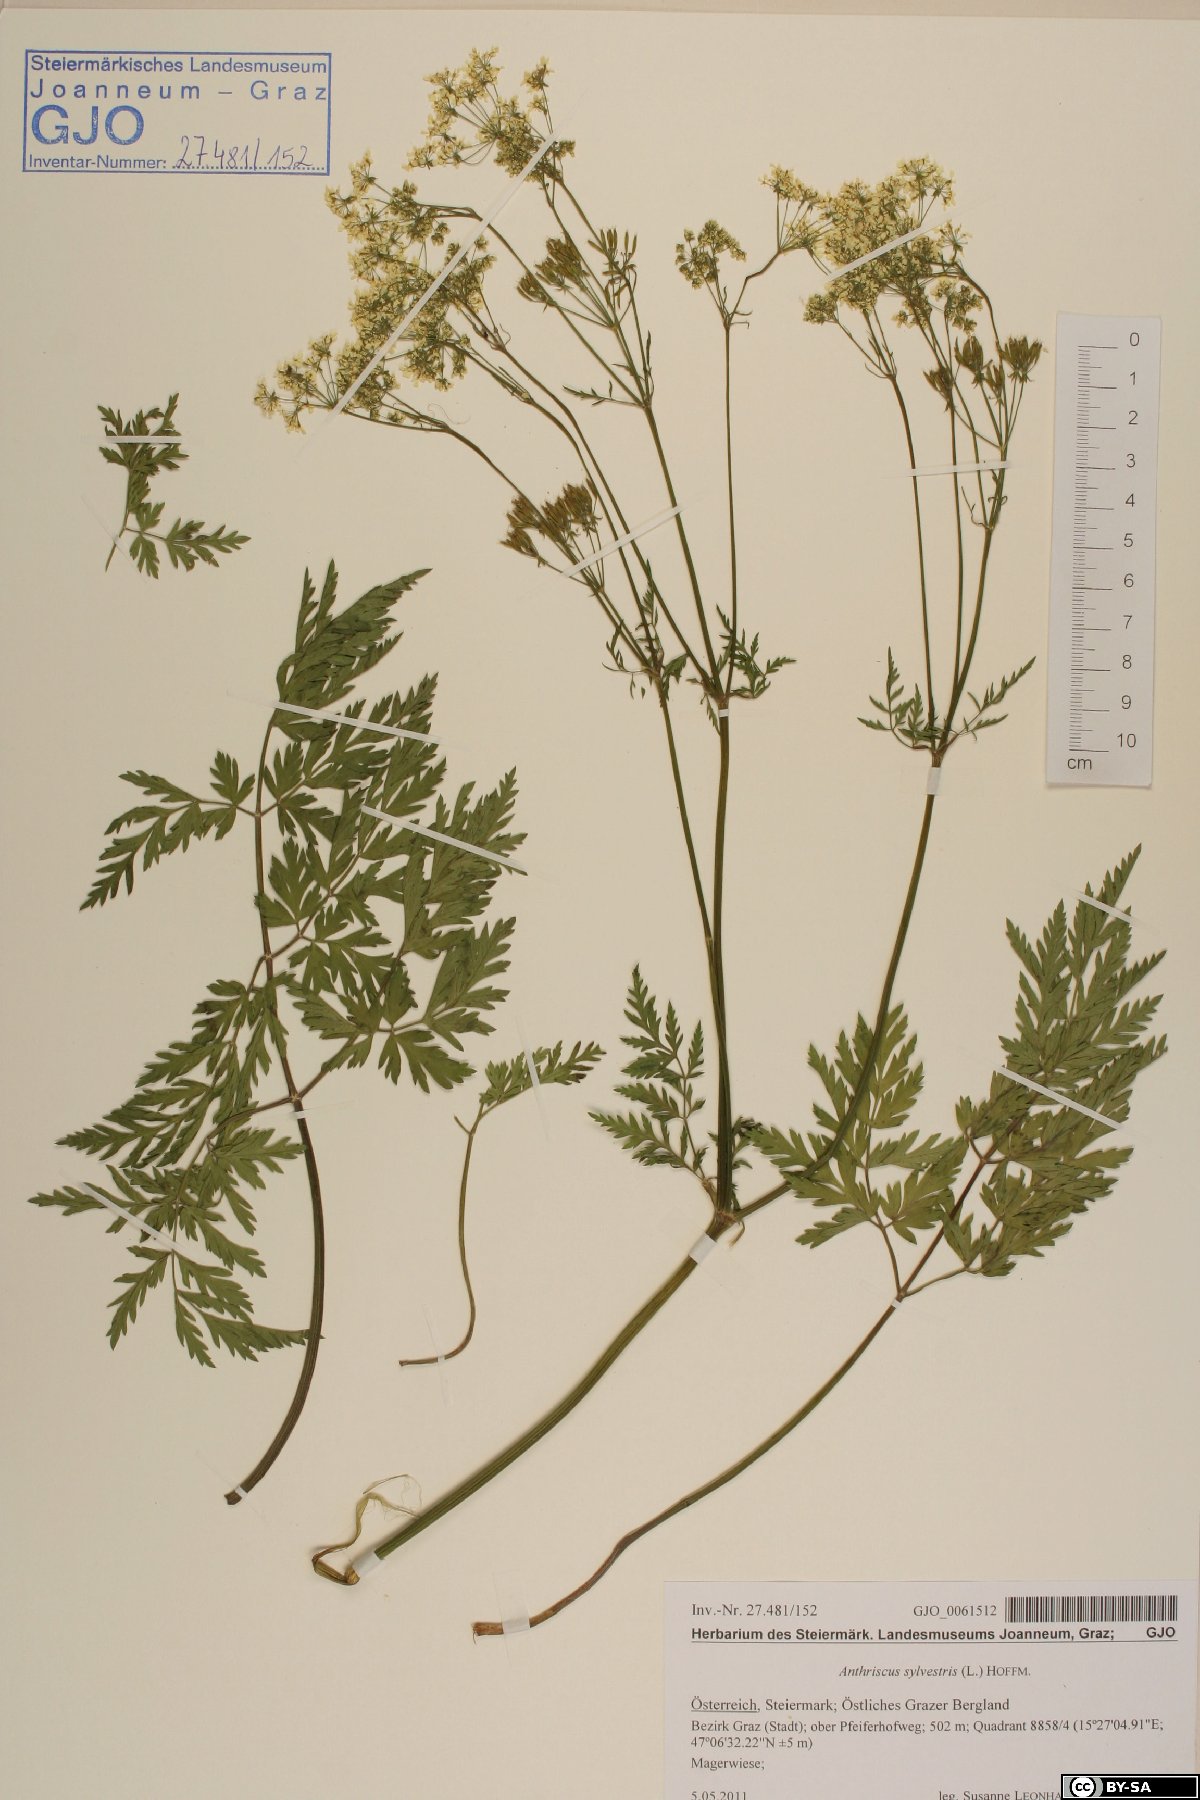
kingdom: Plantae
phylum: Tracheophyta
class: Magnoliopsida
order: Apiales
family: Apiaceae
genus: Anthriscus
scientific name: Anthriscus sylvestris
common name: Cow parsley
